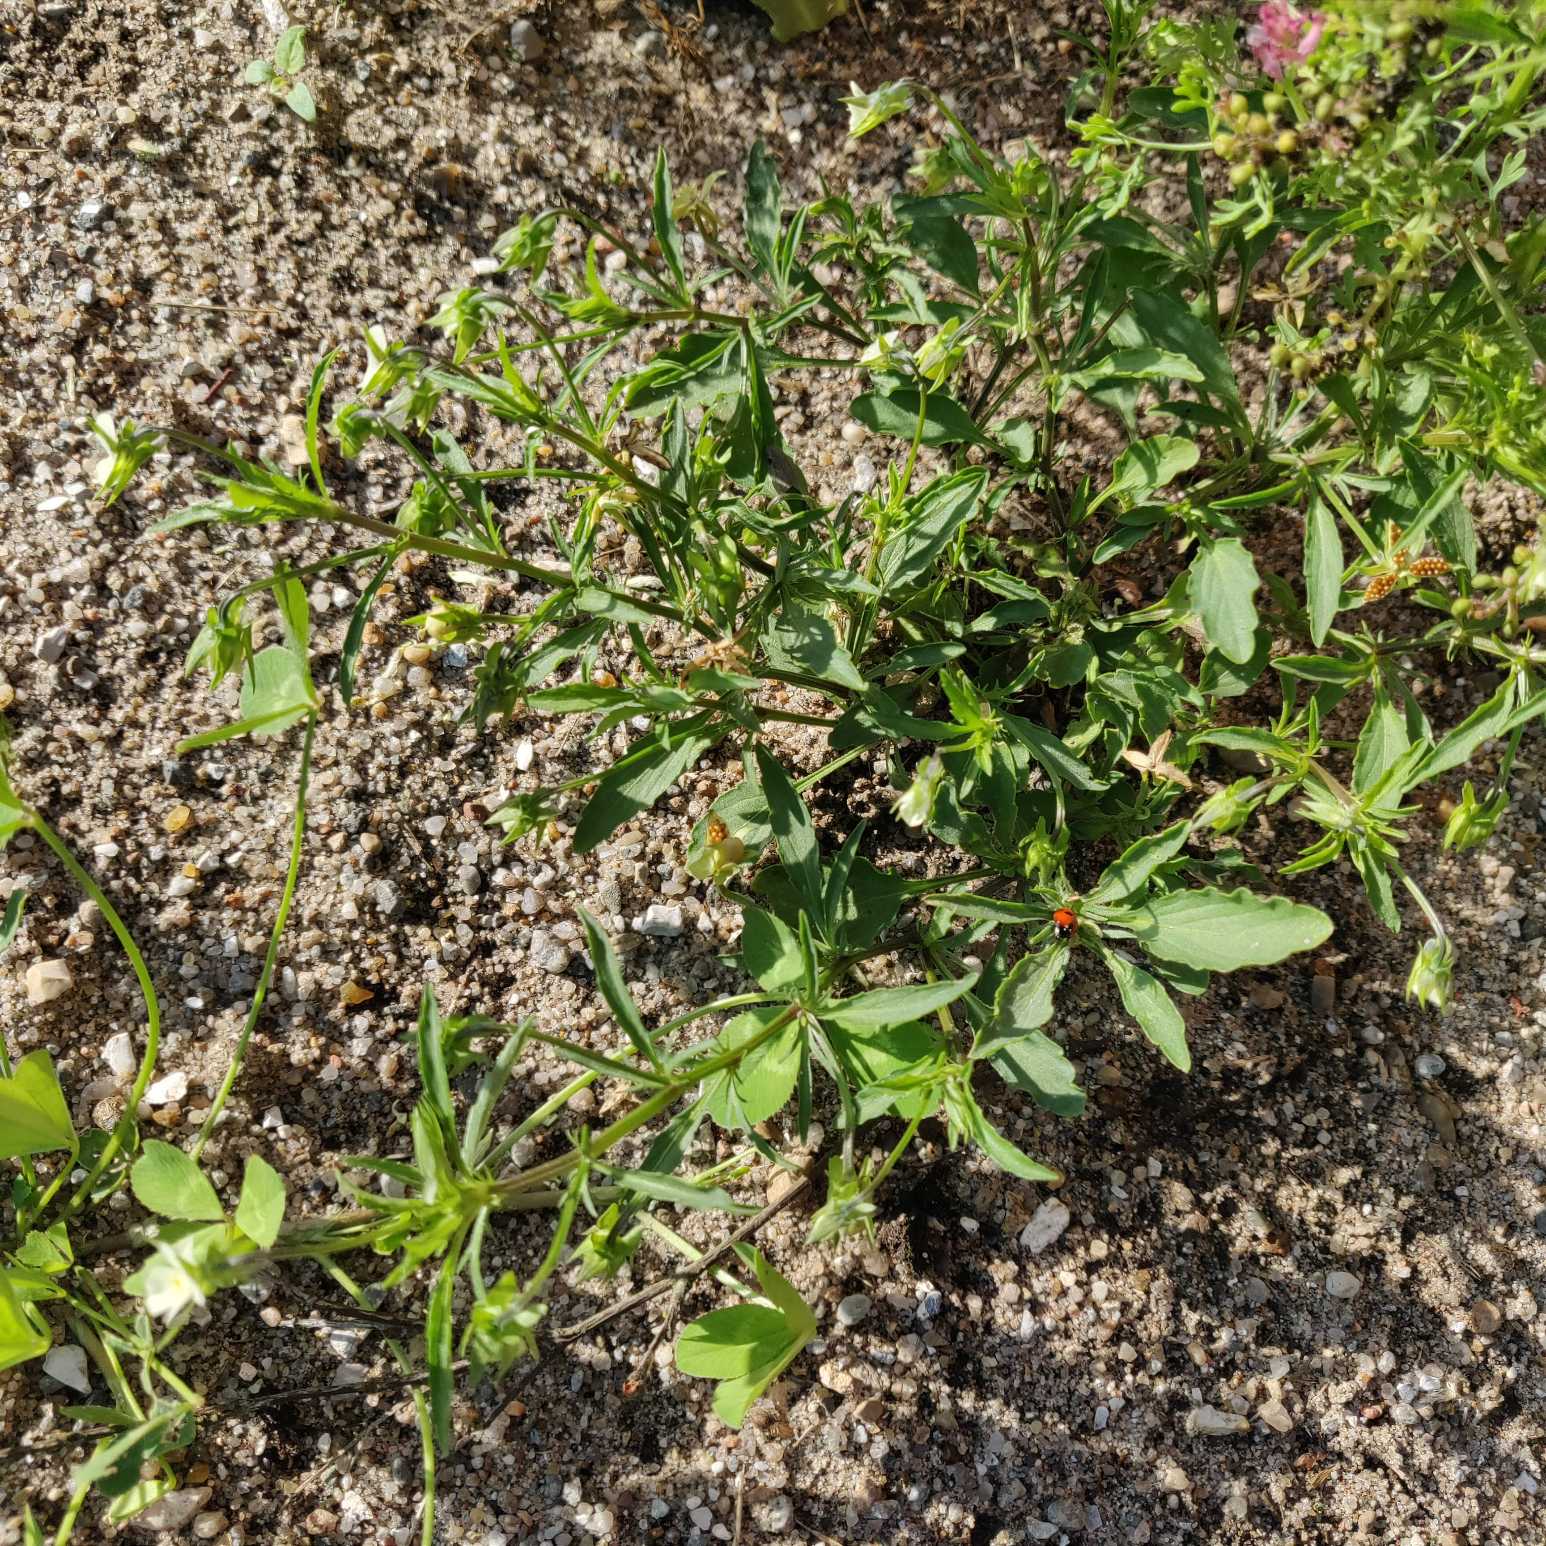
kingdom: Plantae
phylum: Tracheophyta
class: Magnoliopsida
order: Malpighiales
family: Violaceae
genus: Viola
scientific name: Viola arvensis
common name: Ager-stedmoderblomst
